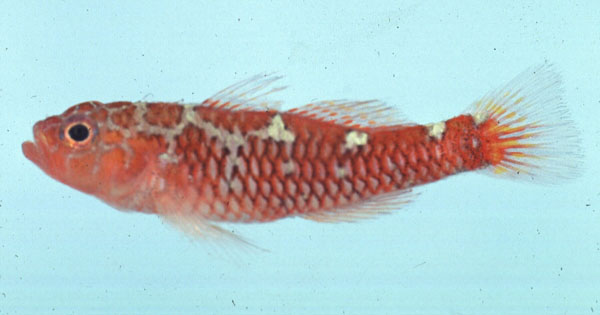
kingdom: Animalia
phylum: Chordata
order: Perciformes
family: Gobiidae
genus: Trimma
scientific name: Trimma caesiura
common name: Caesiura dwarfgoby
